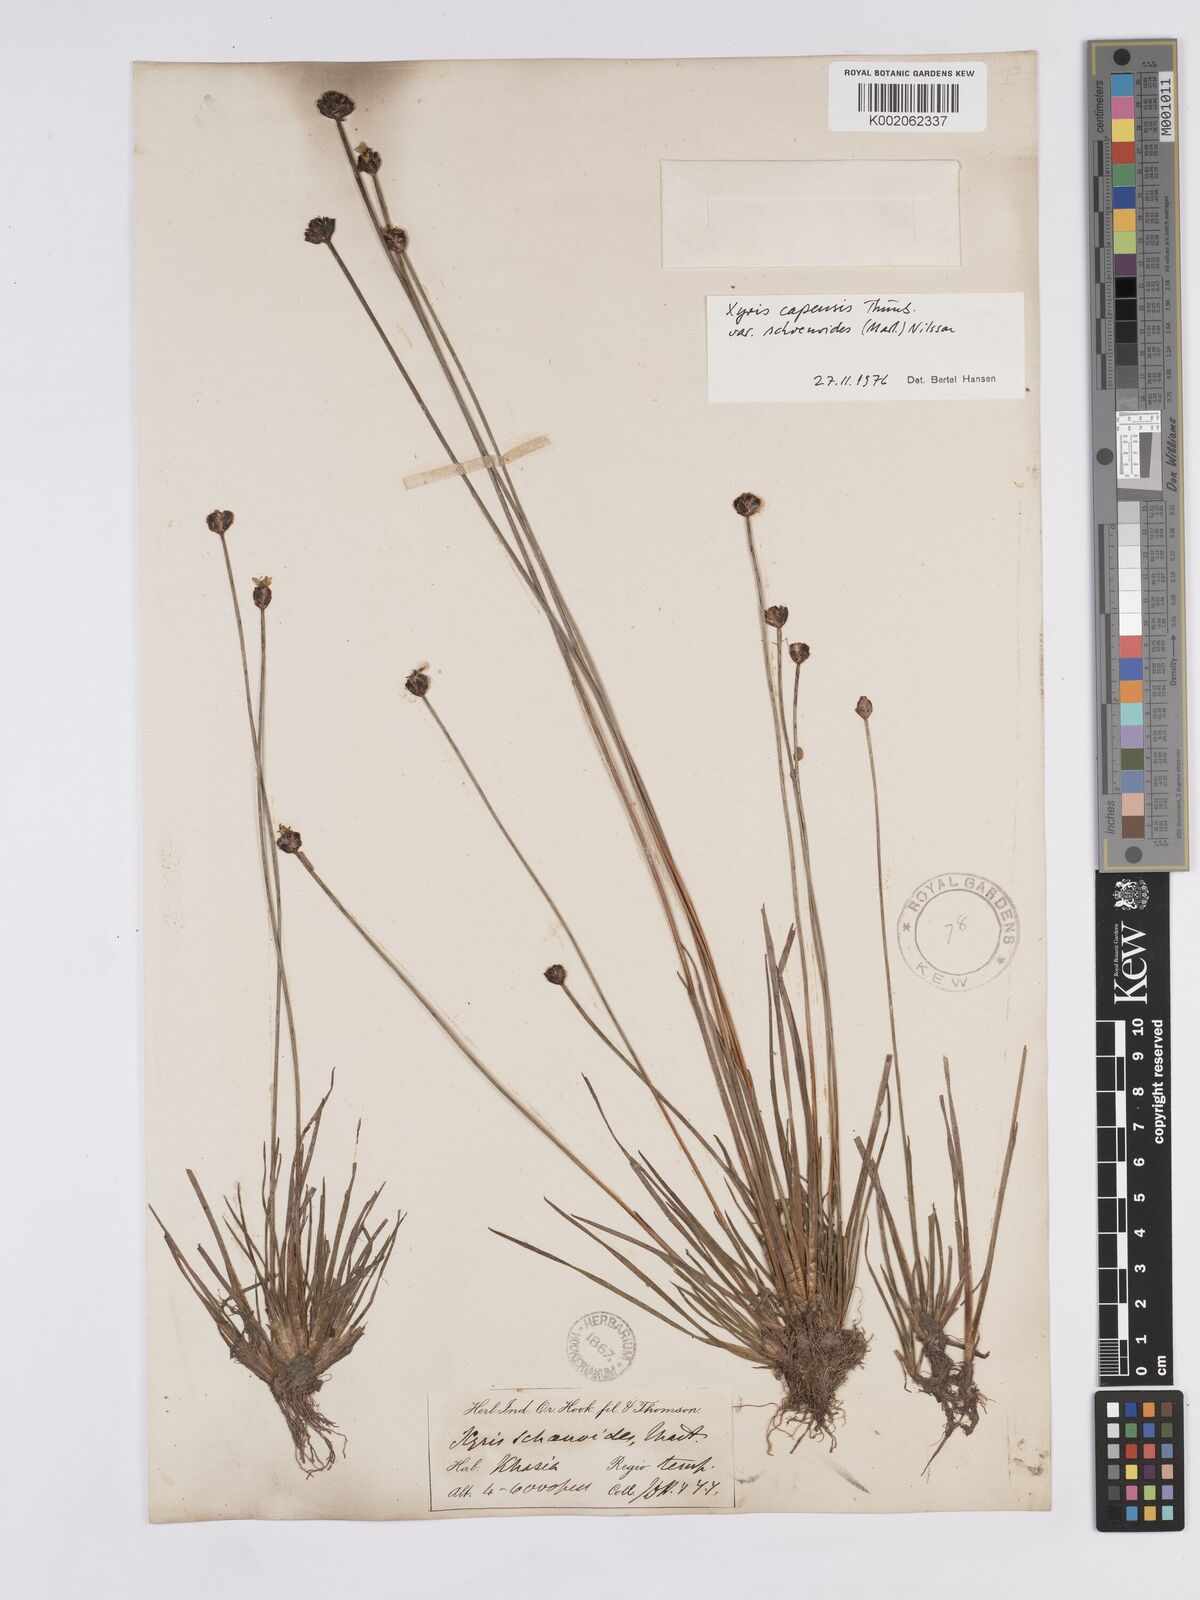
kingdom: Plantae
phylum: Tracheophyta
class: Liliopsida
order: Poales
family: Xyridaceae
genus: Xyris
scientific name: Xyris capensis
